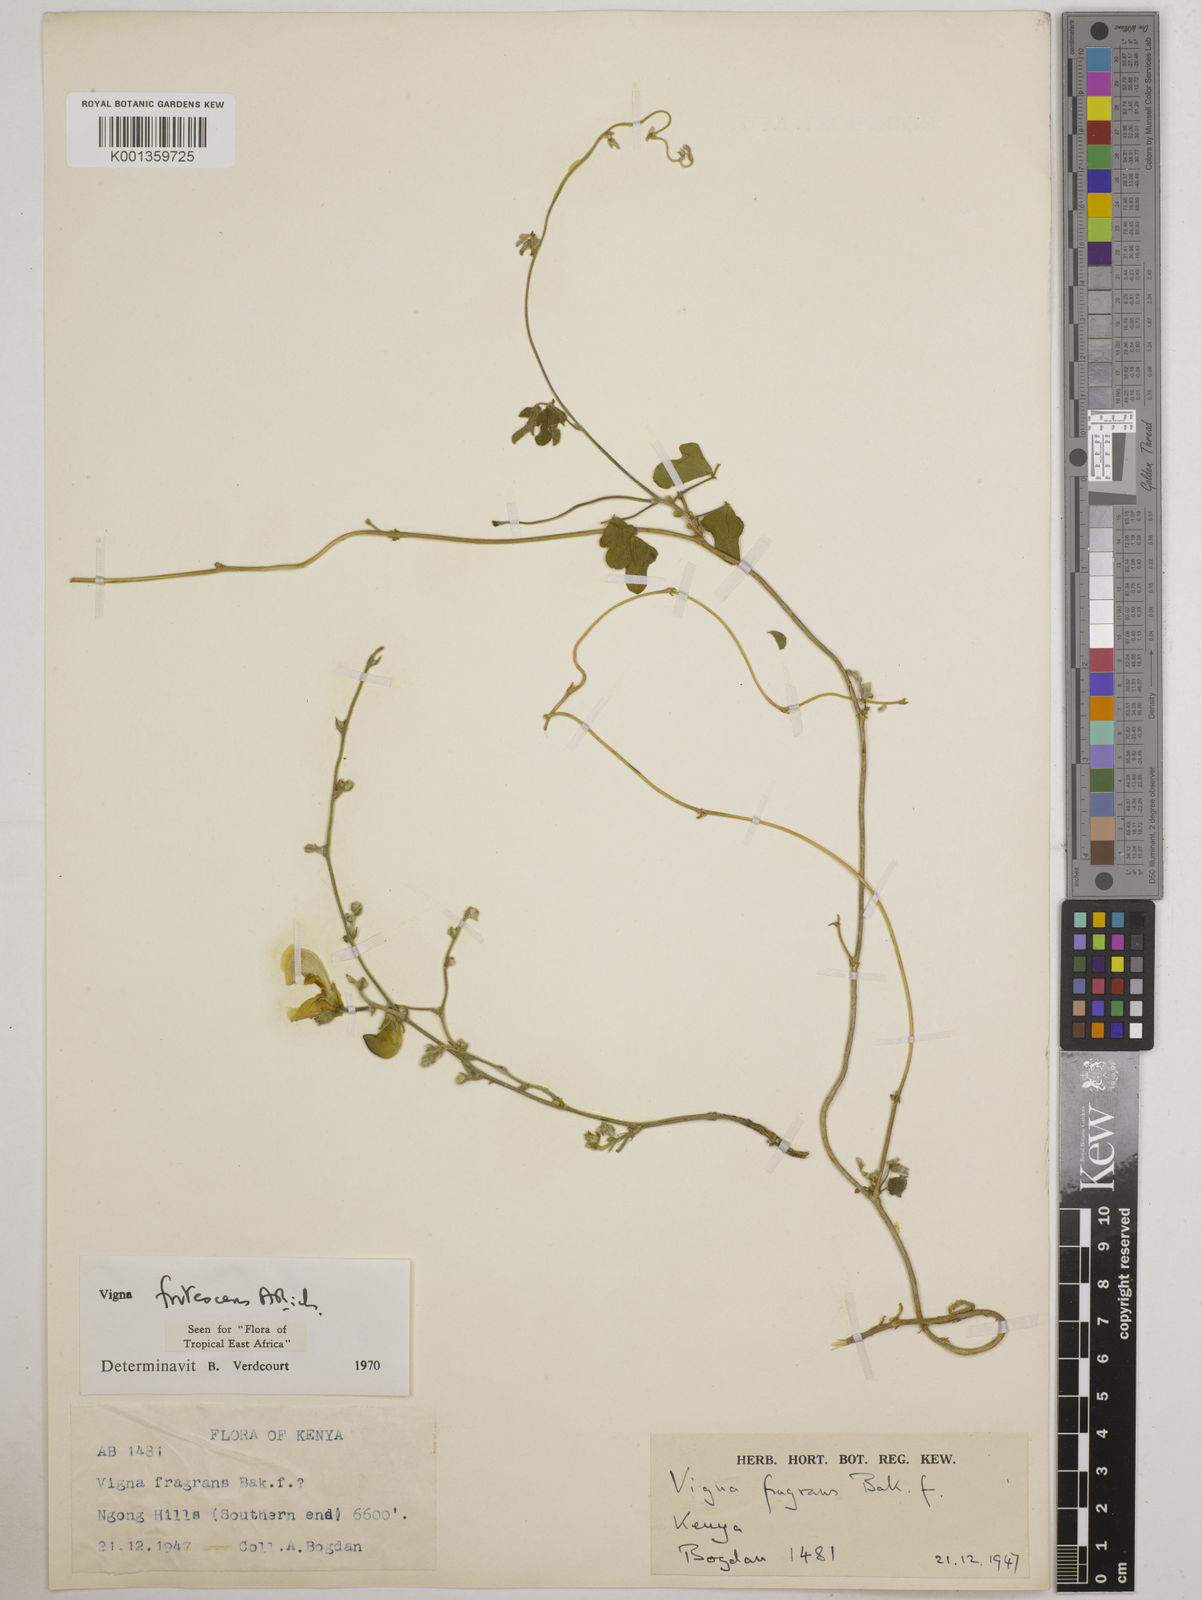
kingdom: Plantae
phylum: Tracheophyta
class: Magnoliopsida
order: Fabales
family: Fabaceae
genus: Vigna
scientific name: Vigna frutescens
